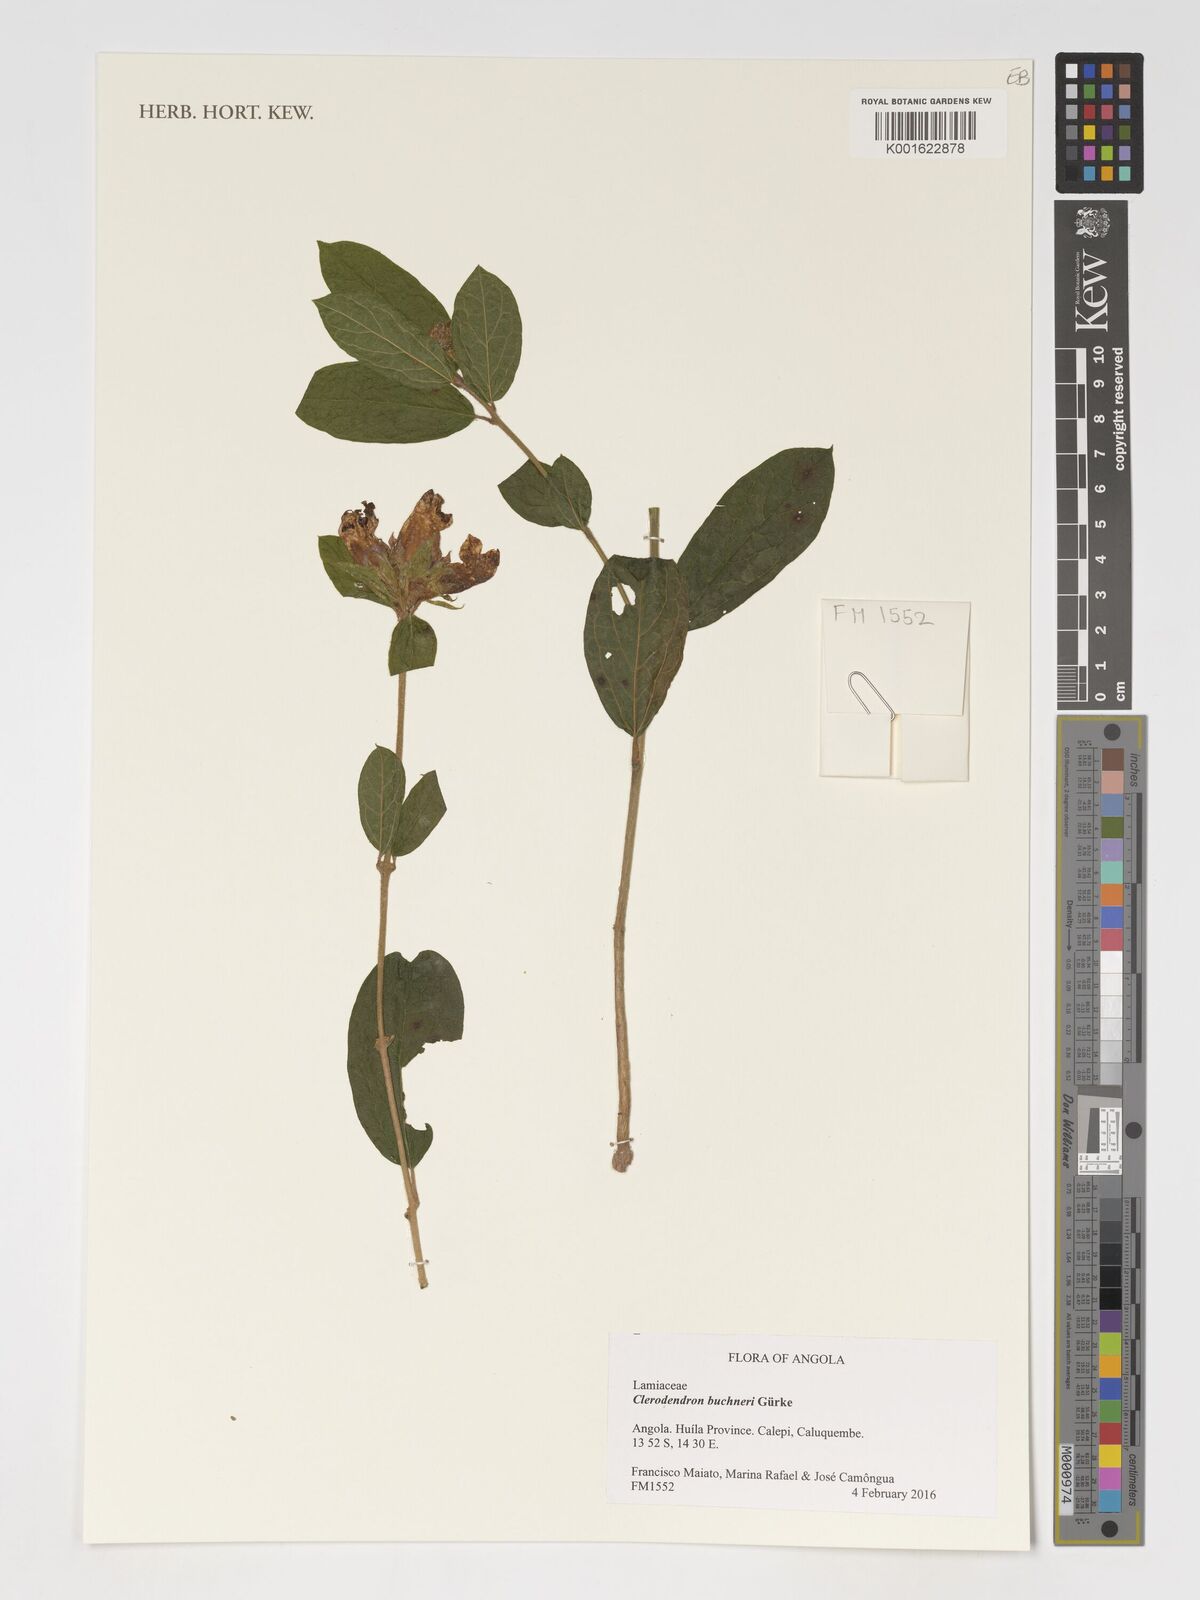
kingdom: Plantae
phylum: Tracheophyta
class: Magnoliopsida
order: Lamiales
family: Lamiaceae
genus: Clerodendrum
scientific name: Clerodendrum buchneri
